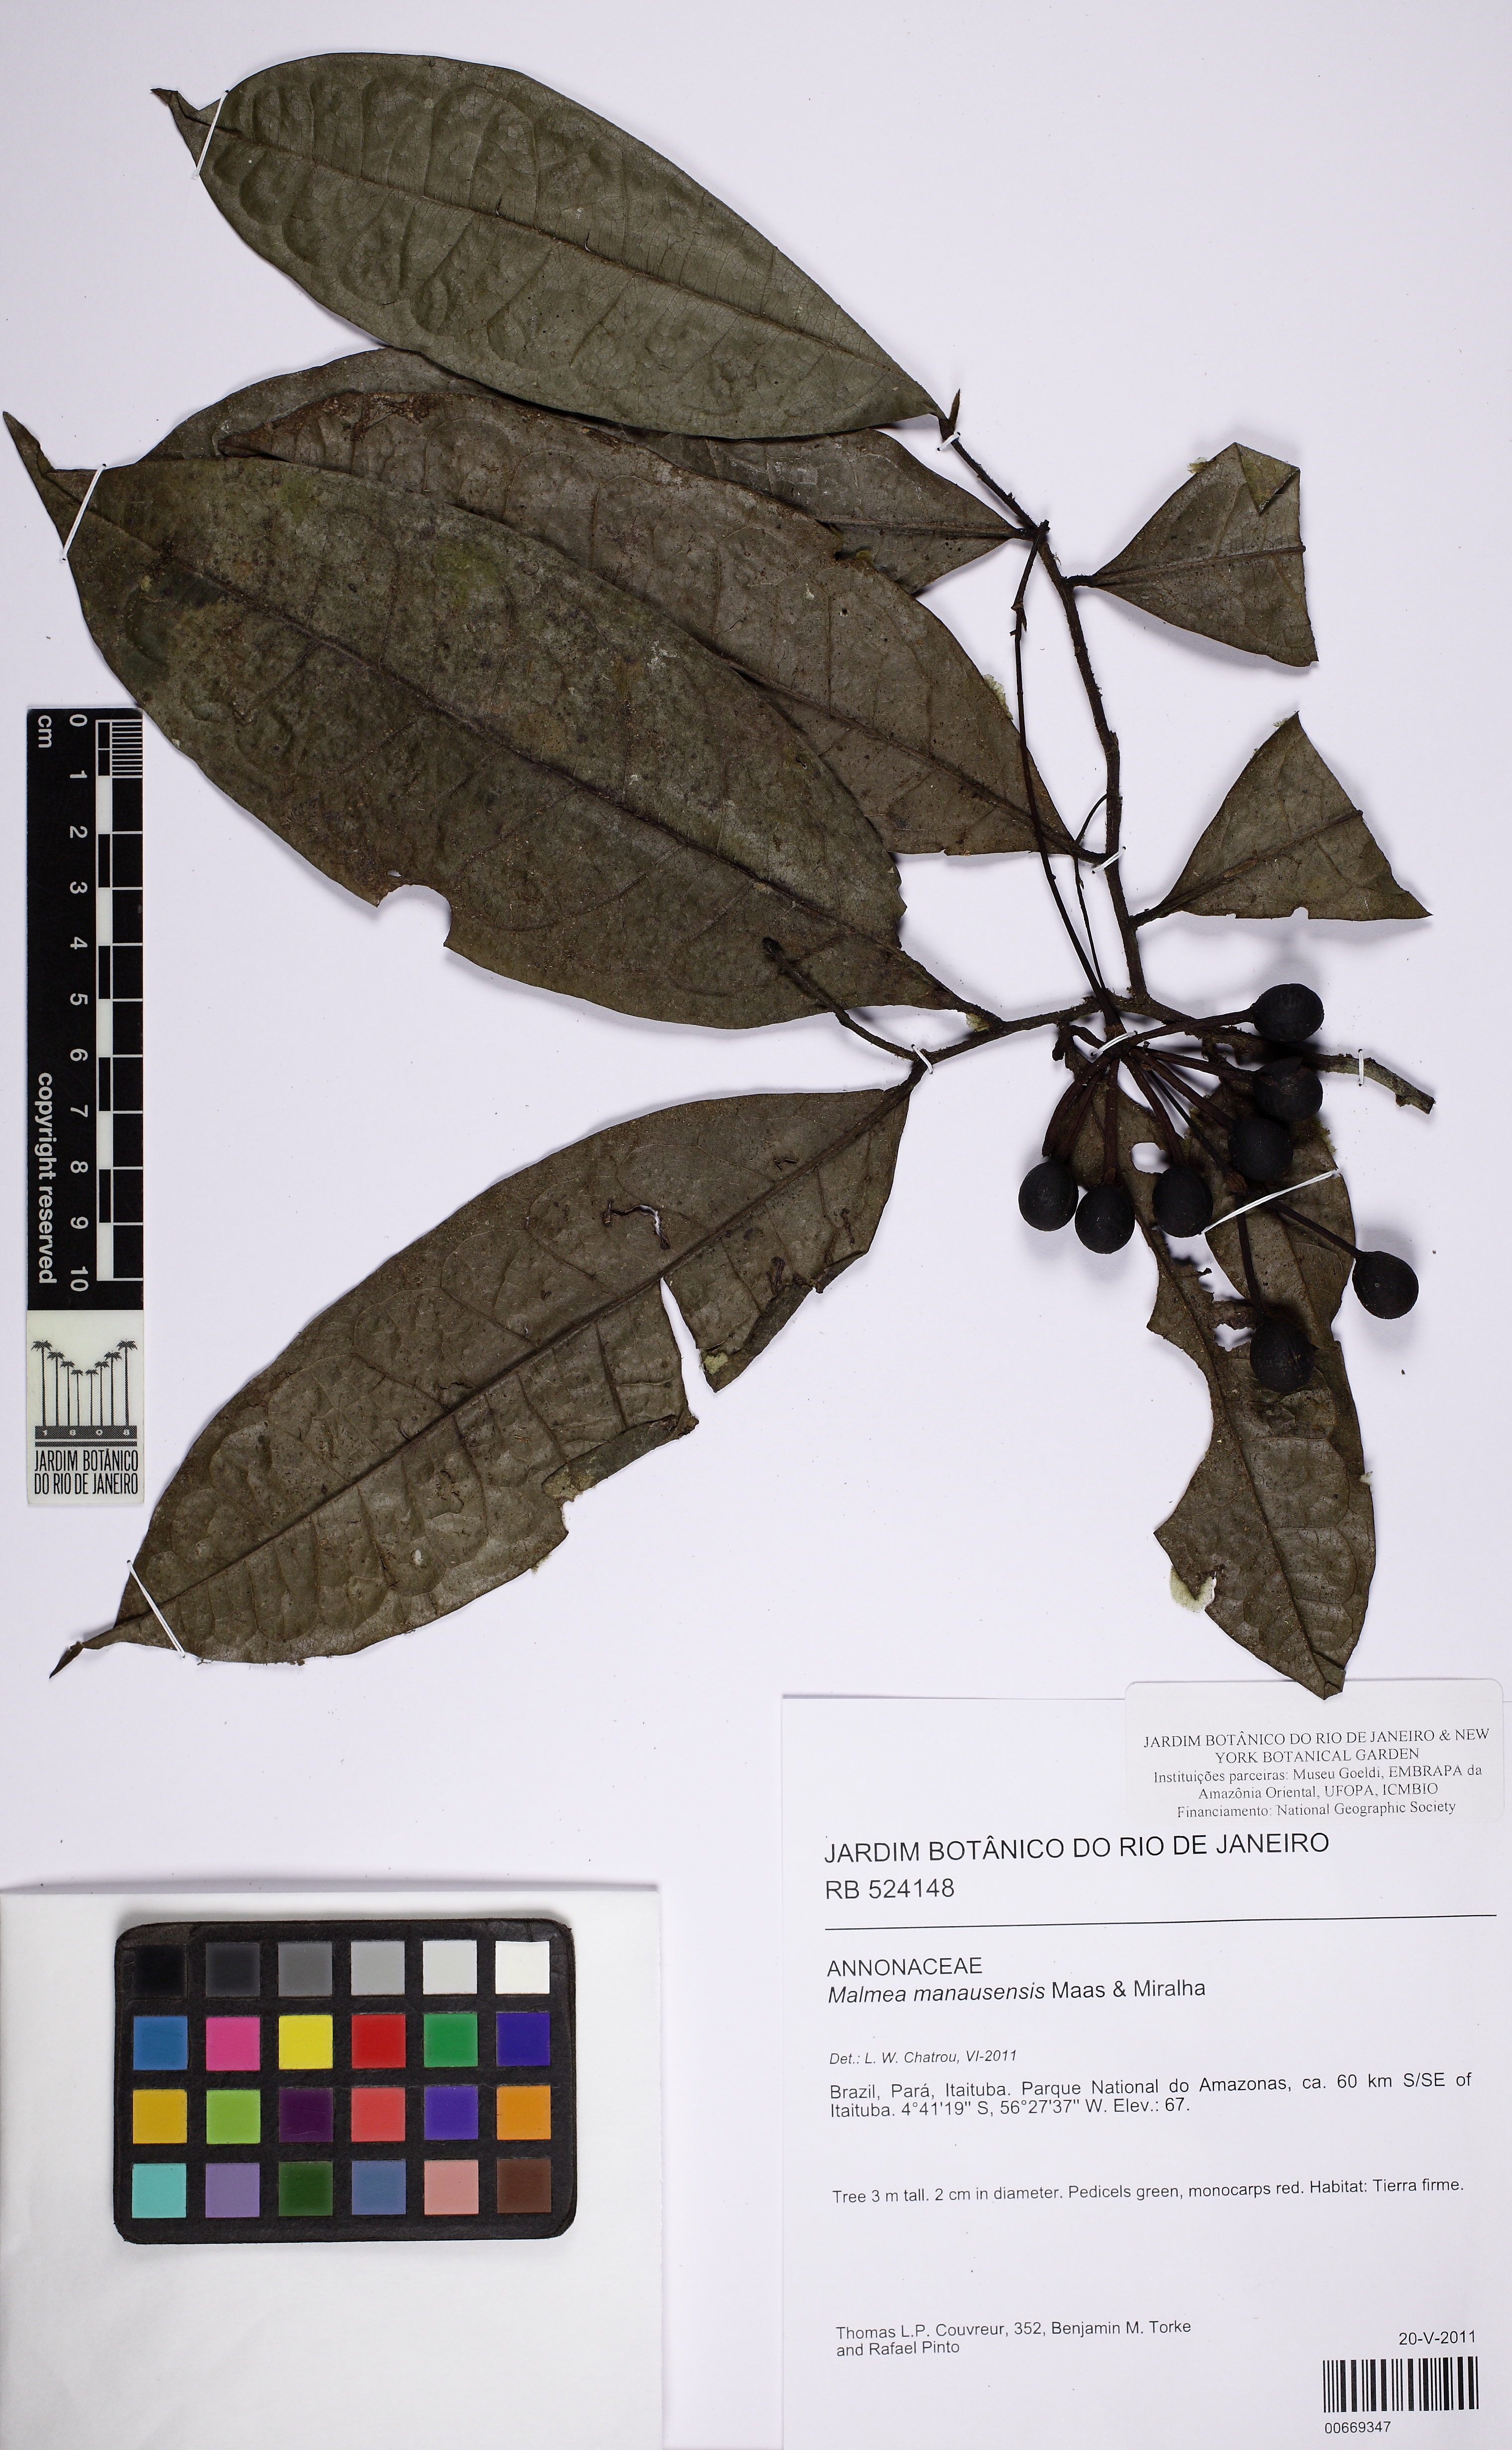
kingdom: Plantae
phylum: Tracheophyta
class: Magnoliopsida
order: Magnoliales
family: Annonaceae
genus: Malmea
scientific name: Malmea manausensis
